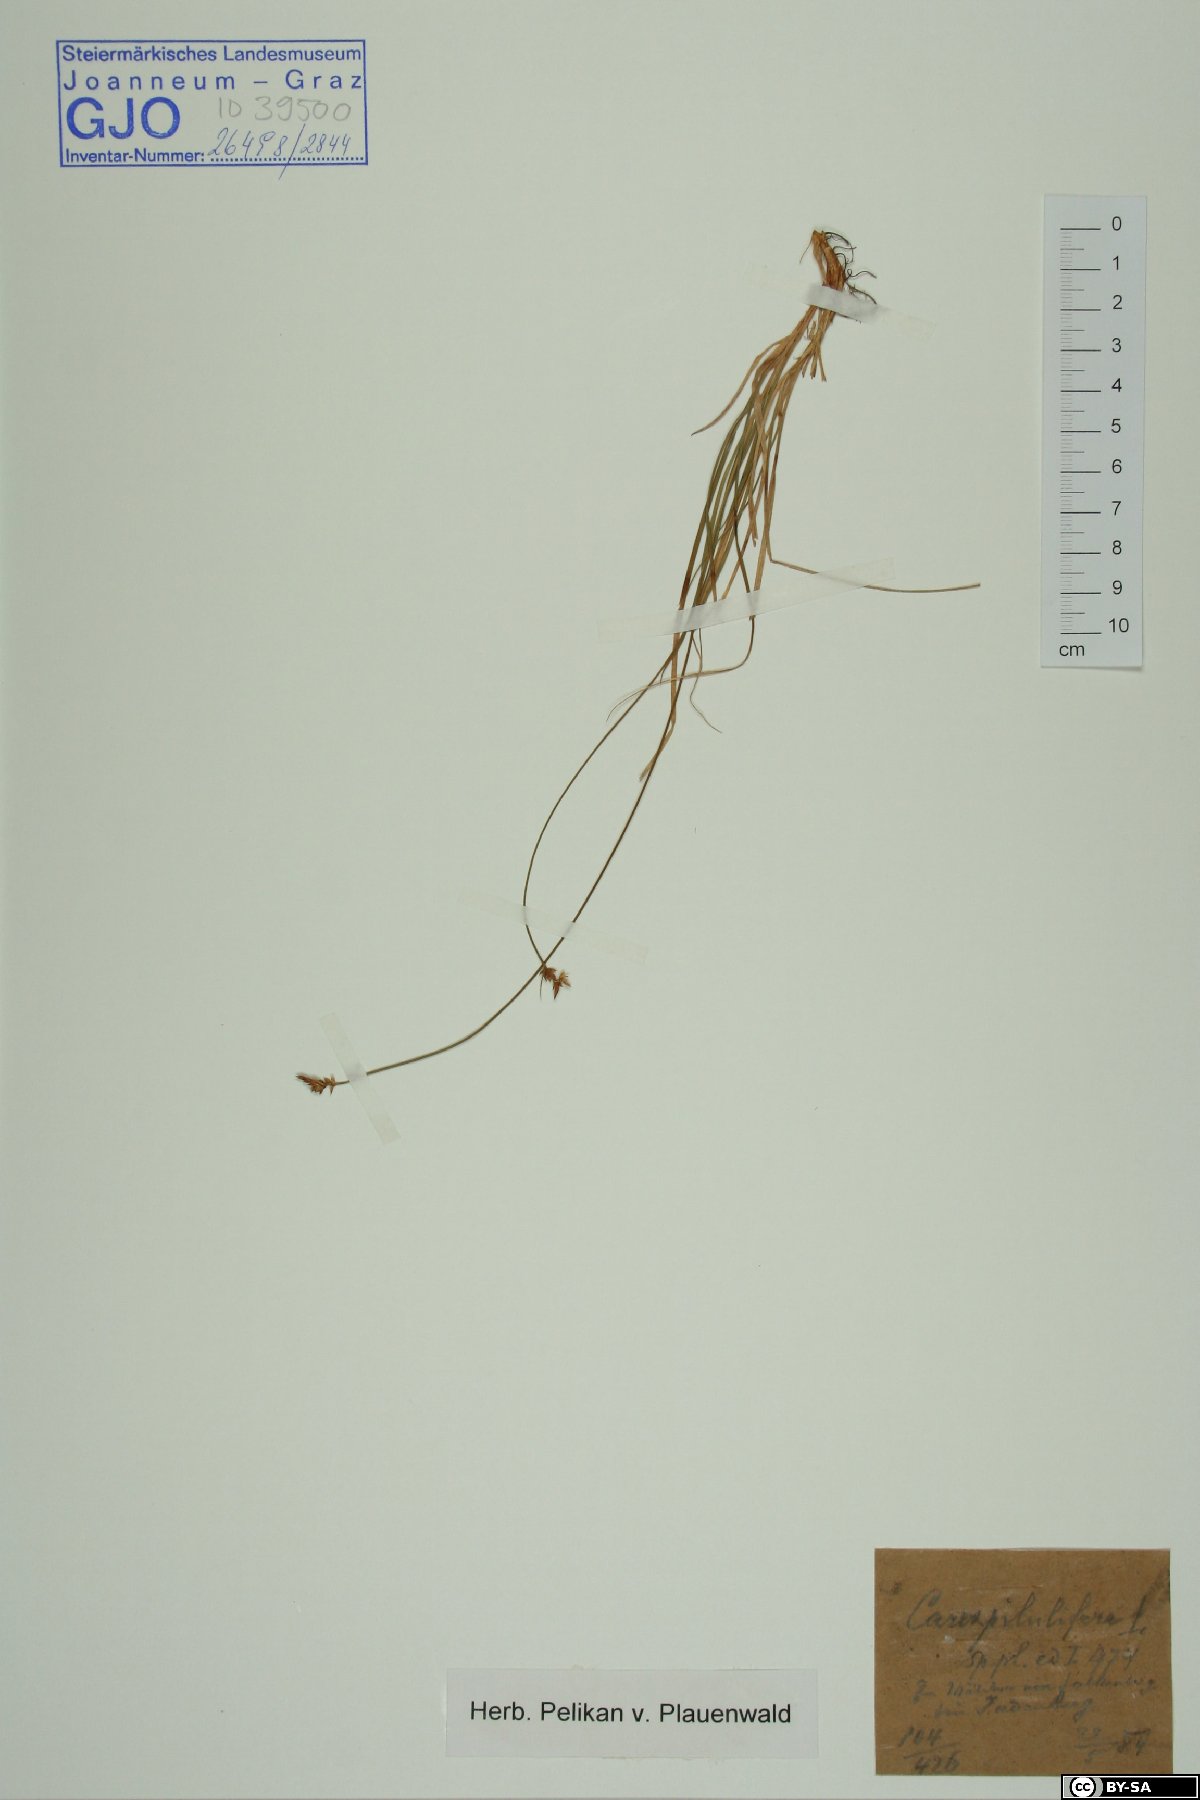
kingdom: Plantae
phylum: Tracheophyta
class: Liliopsida
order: Poales
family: Cyperaceae
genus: Carex
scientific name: Carex pilulifera
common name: Pill sedge
